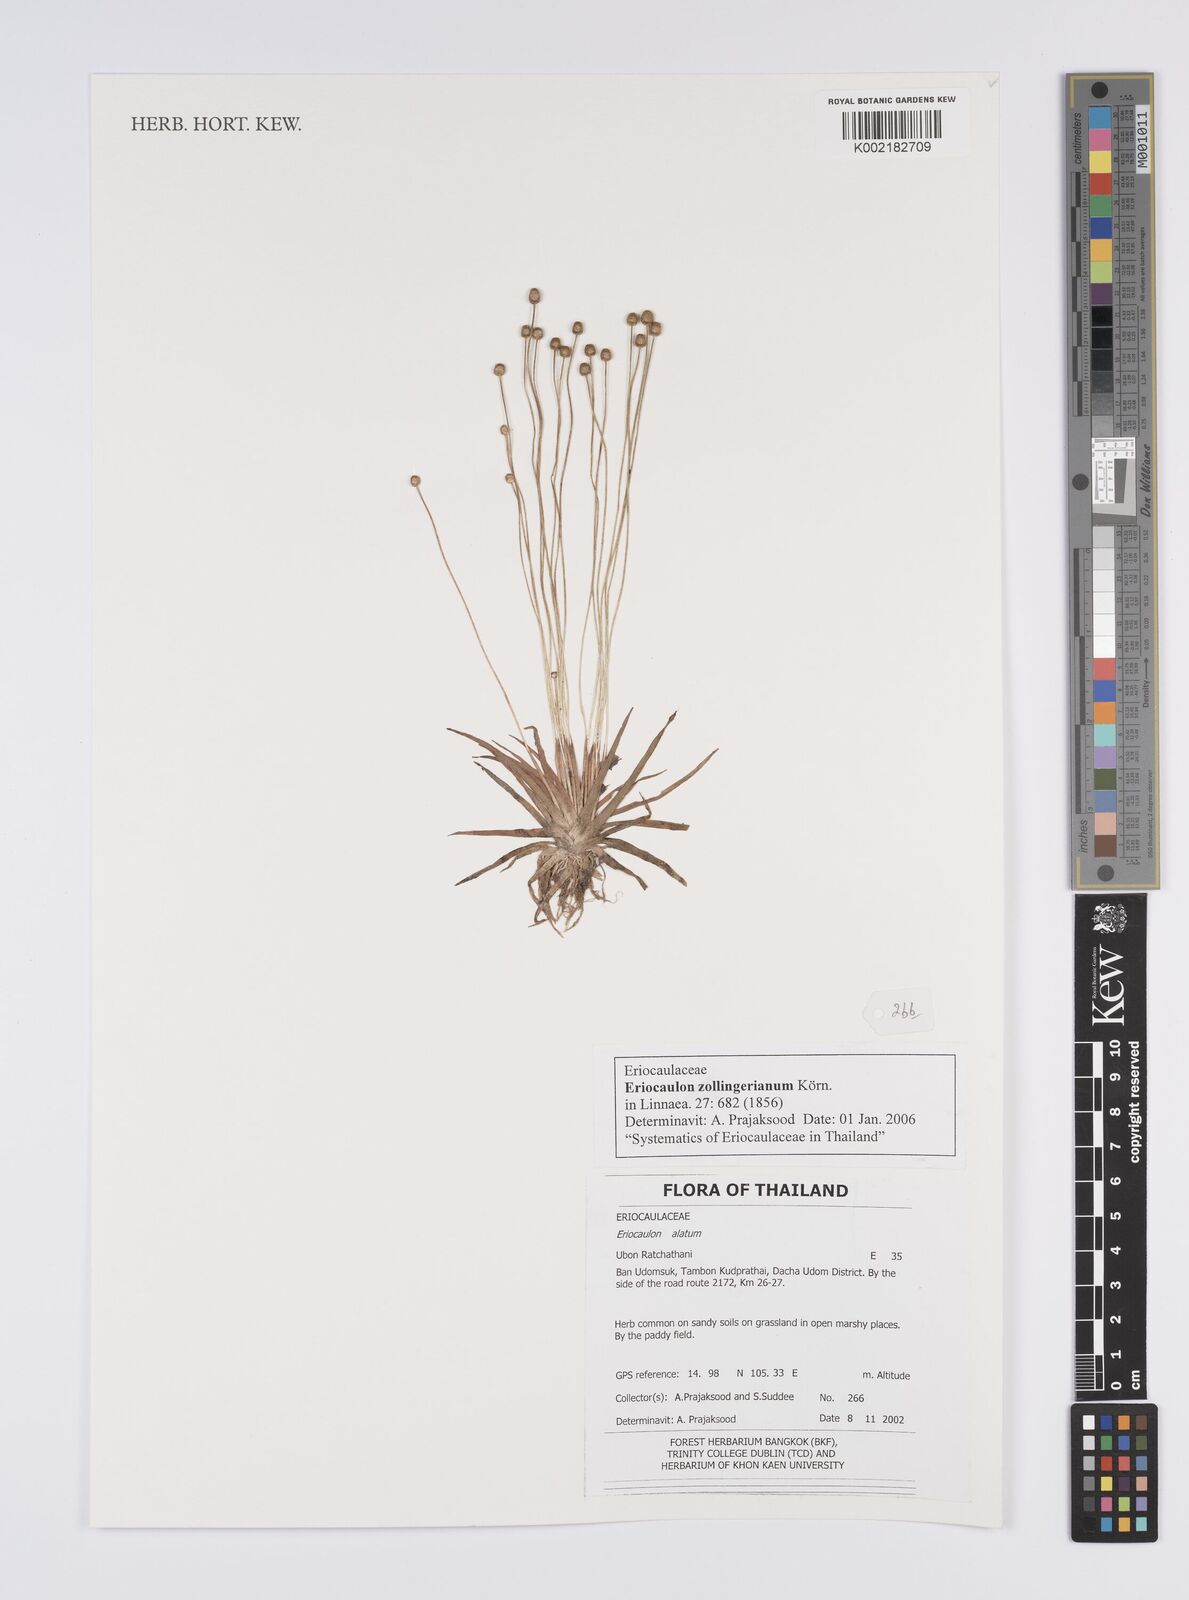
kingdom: Plantae
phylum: Tracheophyta
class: Liliopsida
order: Poales
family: Eriocaulaceae
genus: Eriocaulon
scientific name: Eriocaulon zollingerianum
